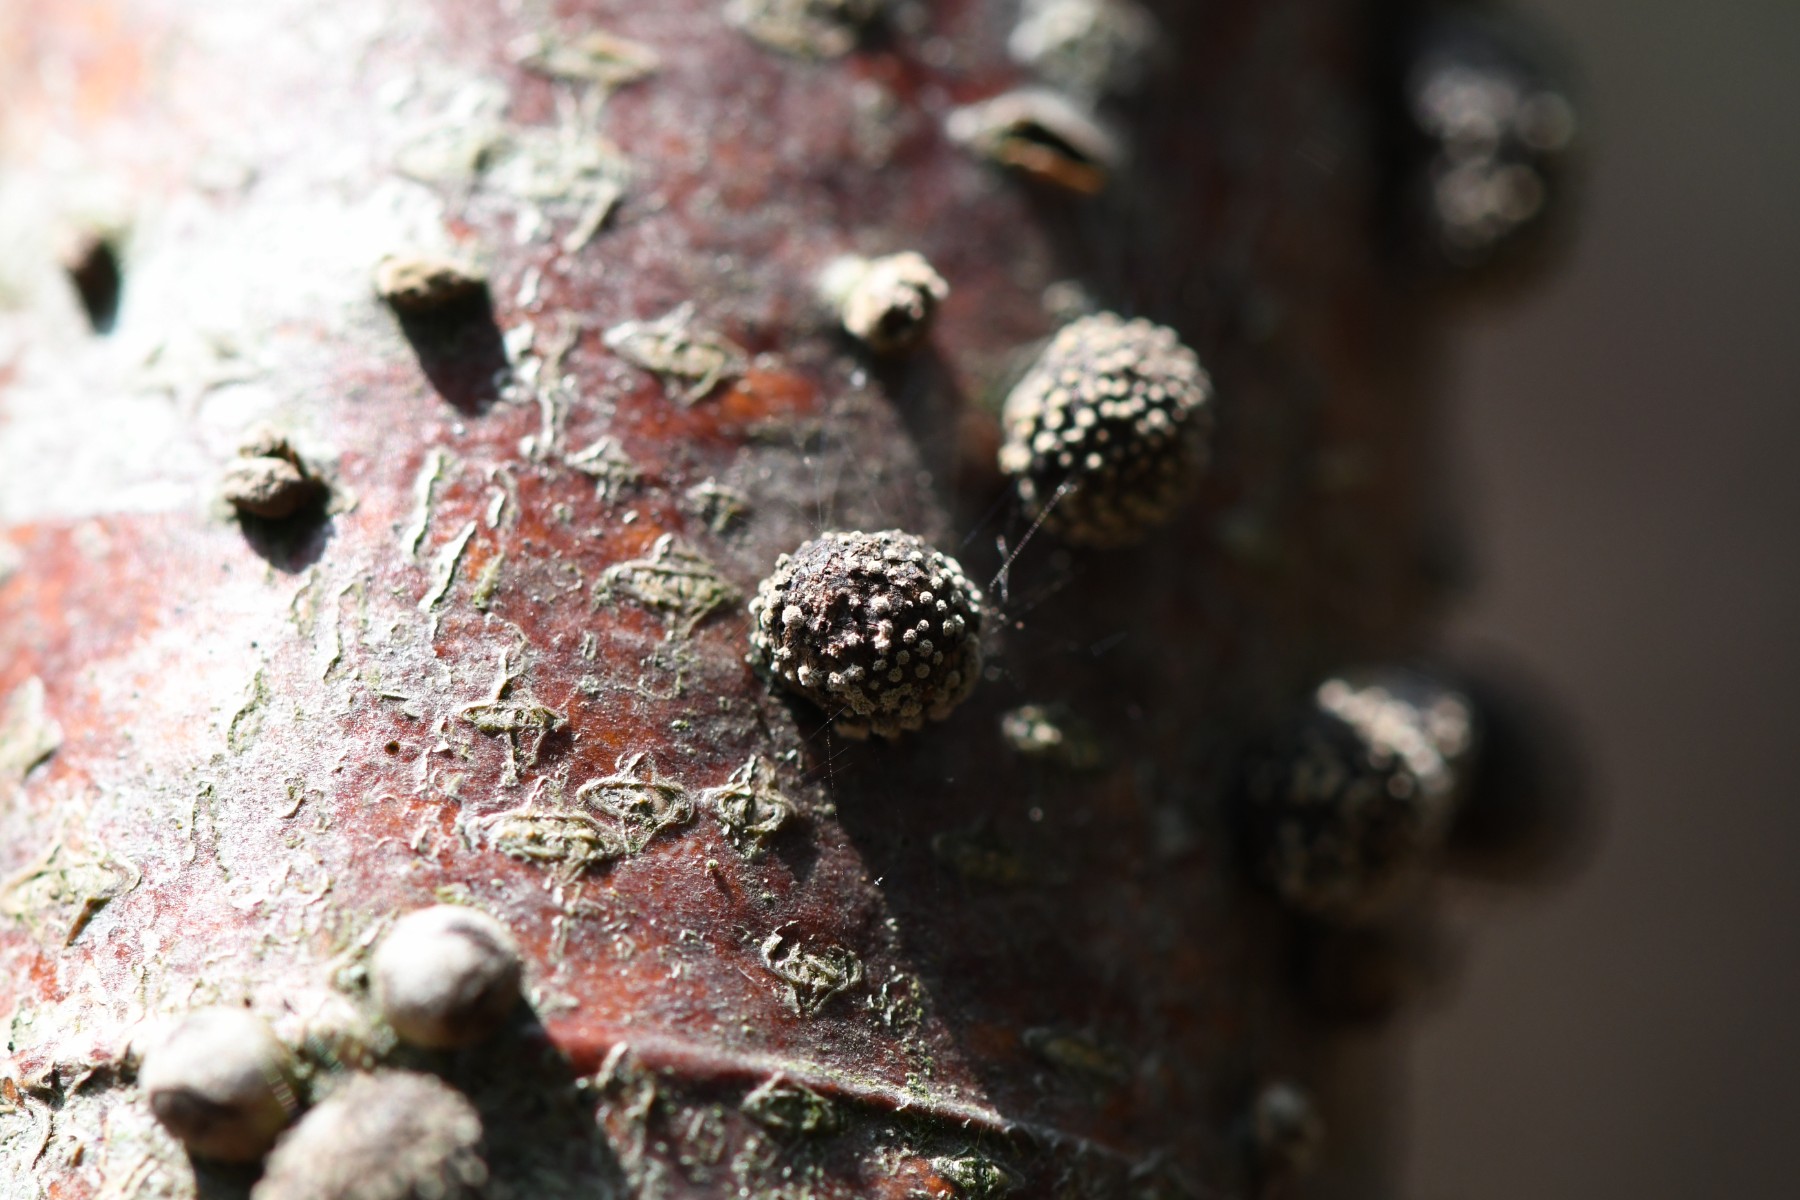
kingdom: Fungi
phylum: Ascomycota
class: Sordariomycetes
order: Xylariales
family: Hypoxylaceae
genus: Hypoxylon
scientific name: Hypoxylon fragiforme
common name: kuljordbær
